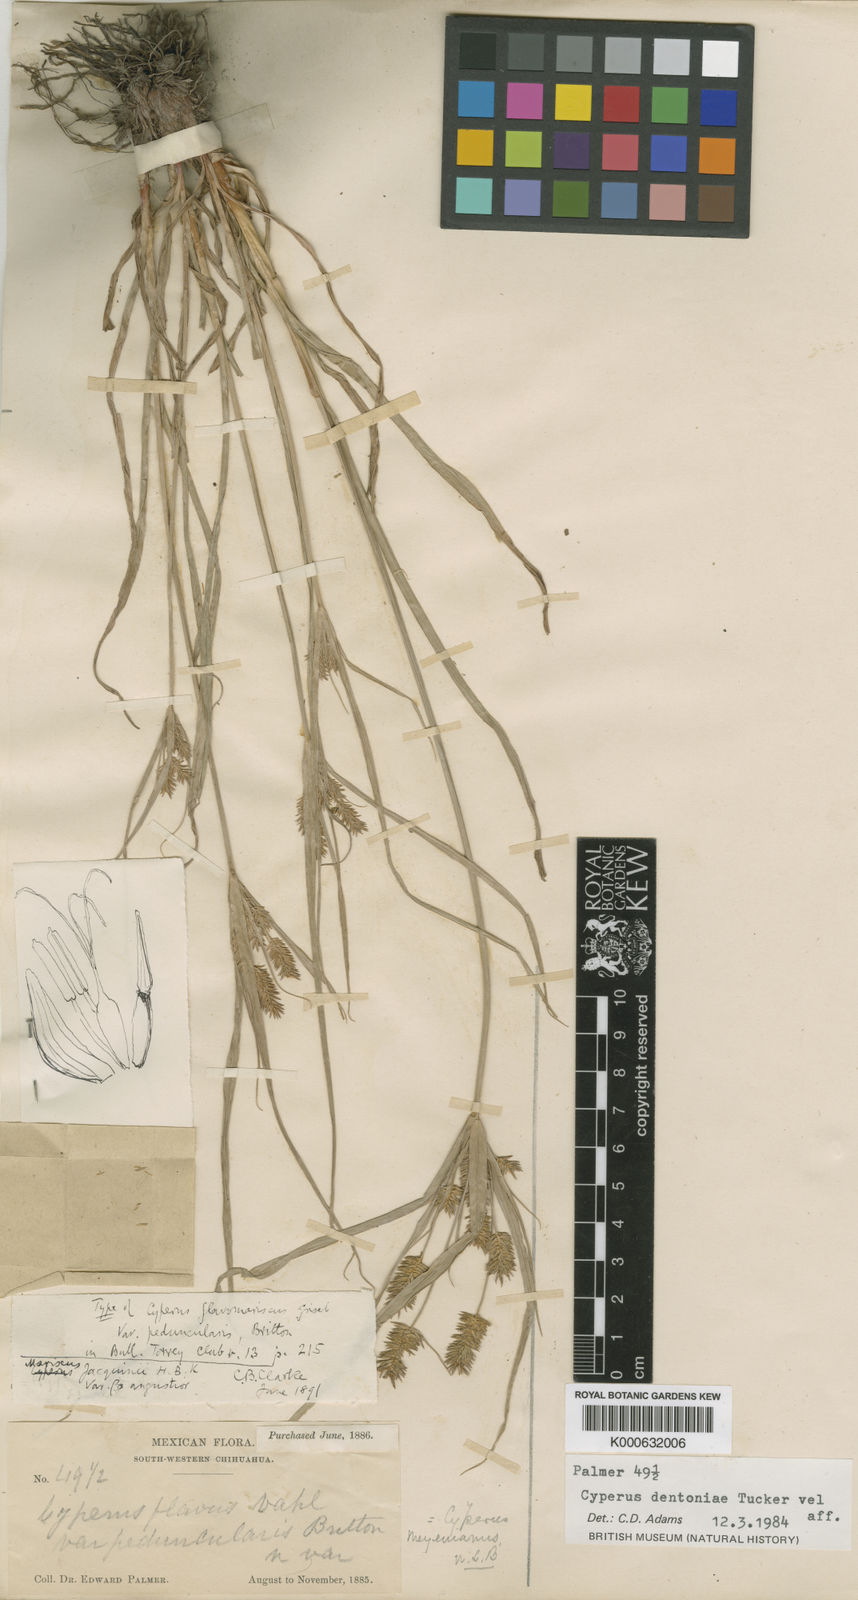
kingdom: Plantae
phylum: Tracheophyta
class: Liliopsida
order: Poales
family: Cyperaceae
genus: Cyperus
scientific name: Cyperus dentoniae
